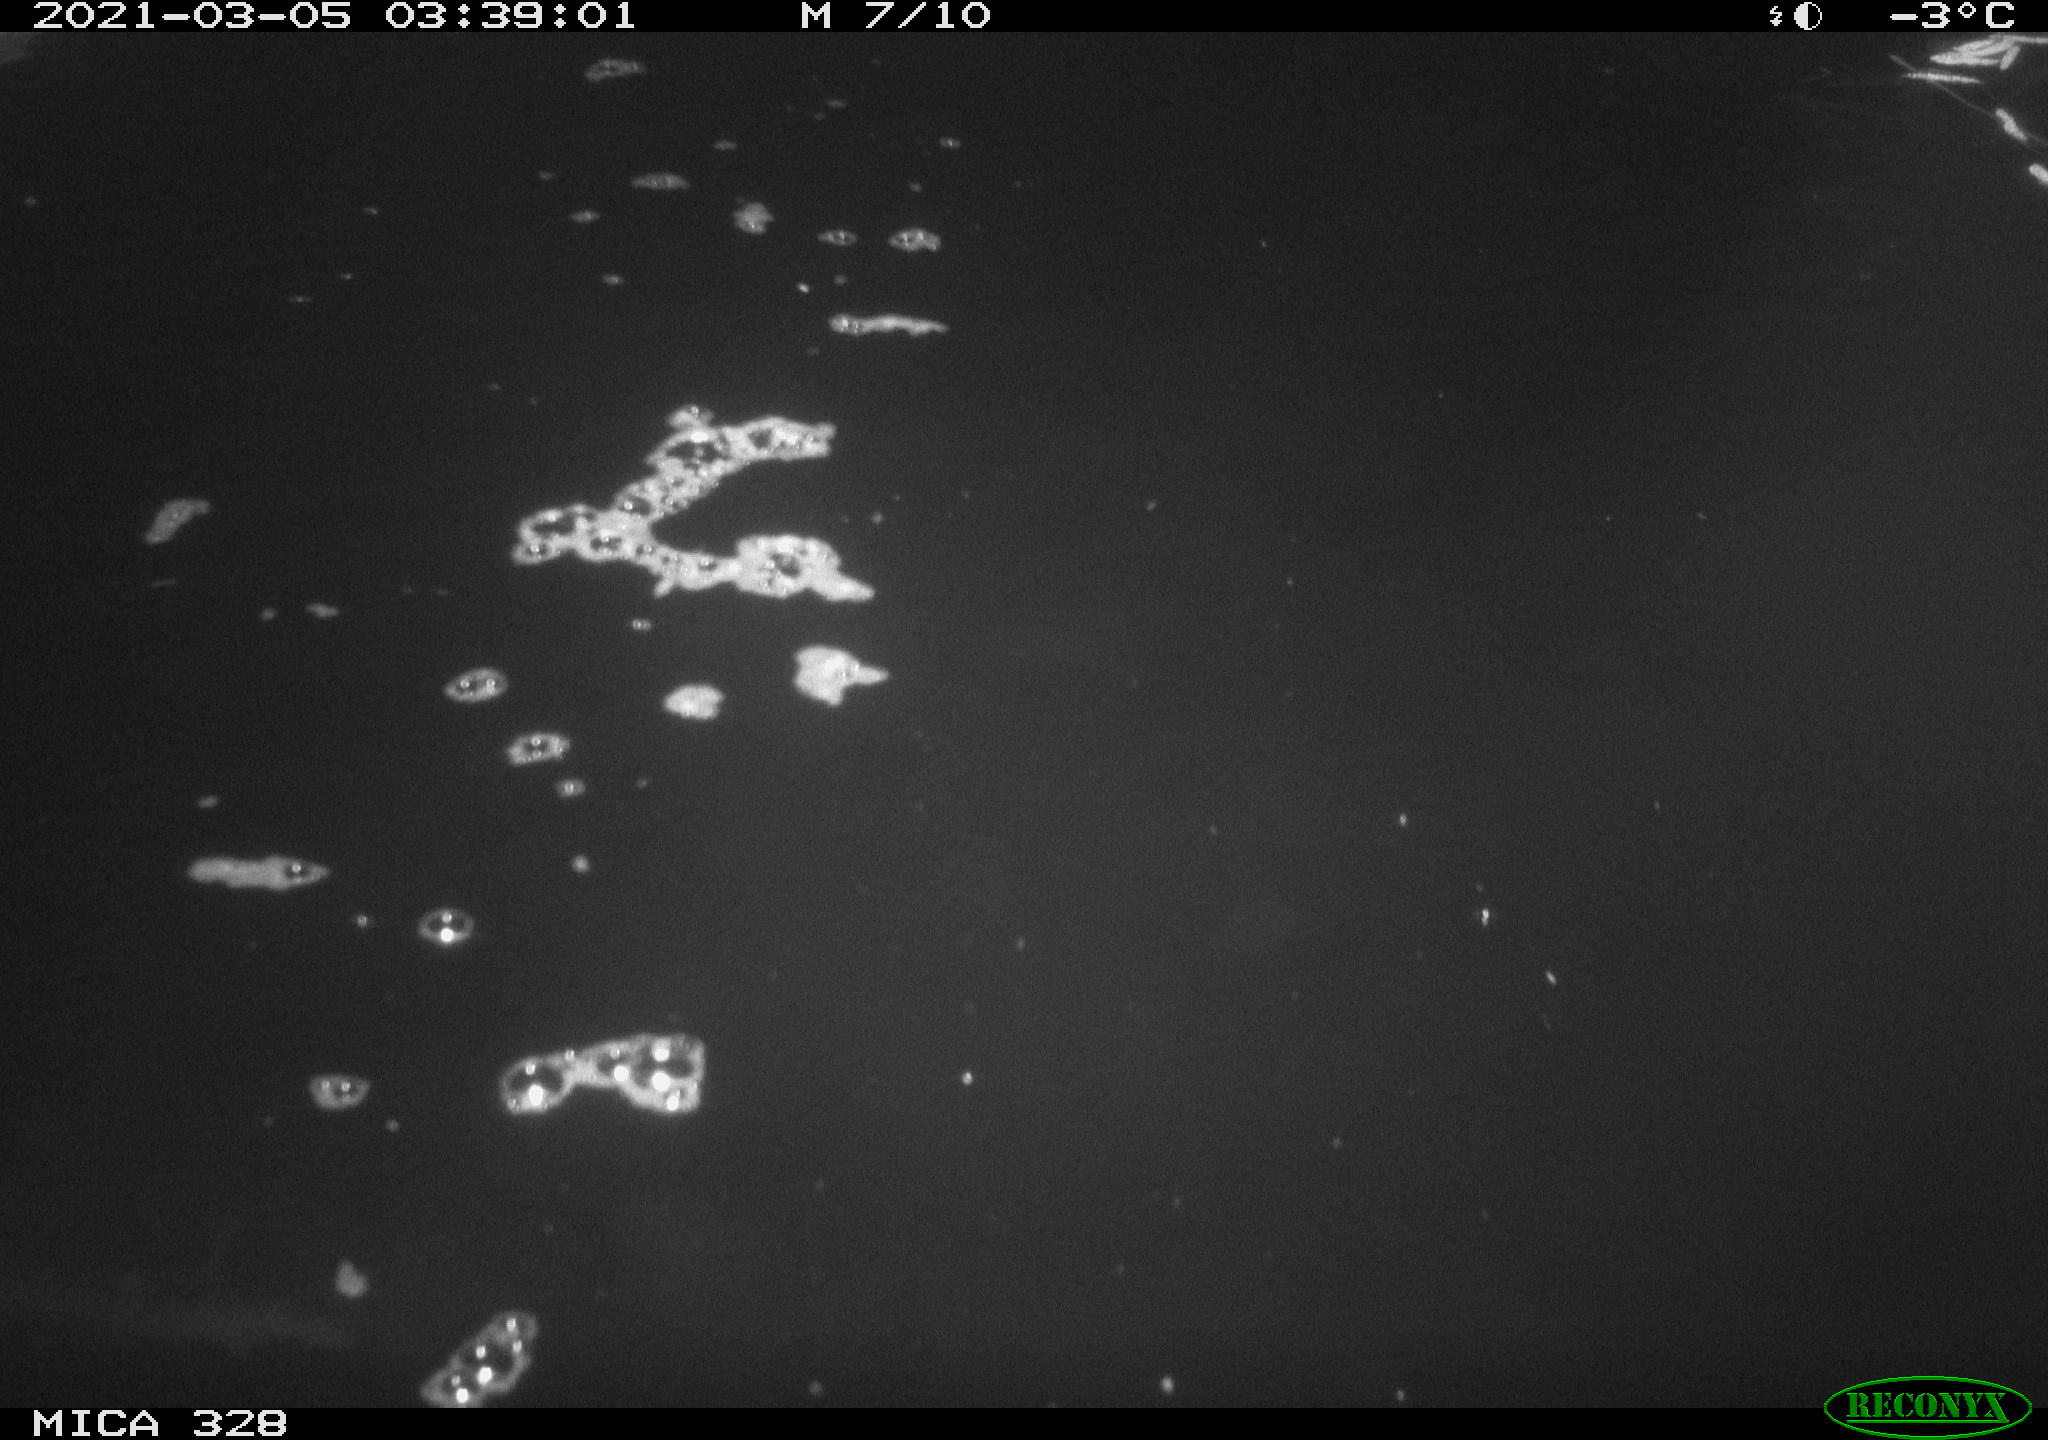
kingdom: Animalia
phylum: Chordata
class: Aves
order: Anseriformes
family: Anatidae
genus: Anas
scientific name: Anas platyrhynchos
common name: Mallard
